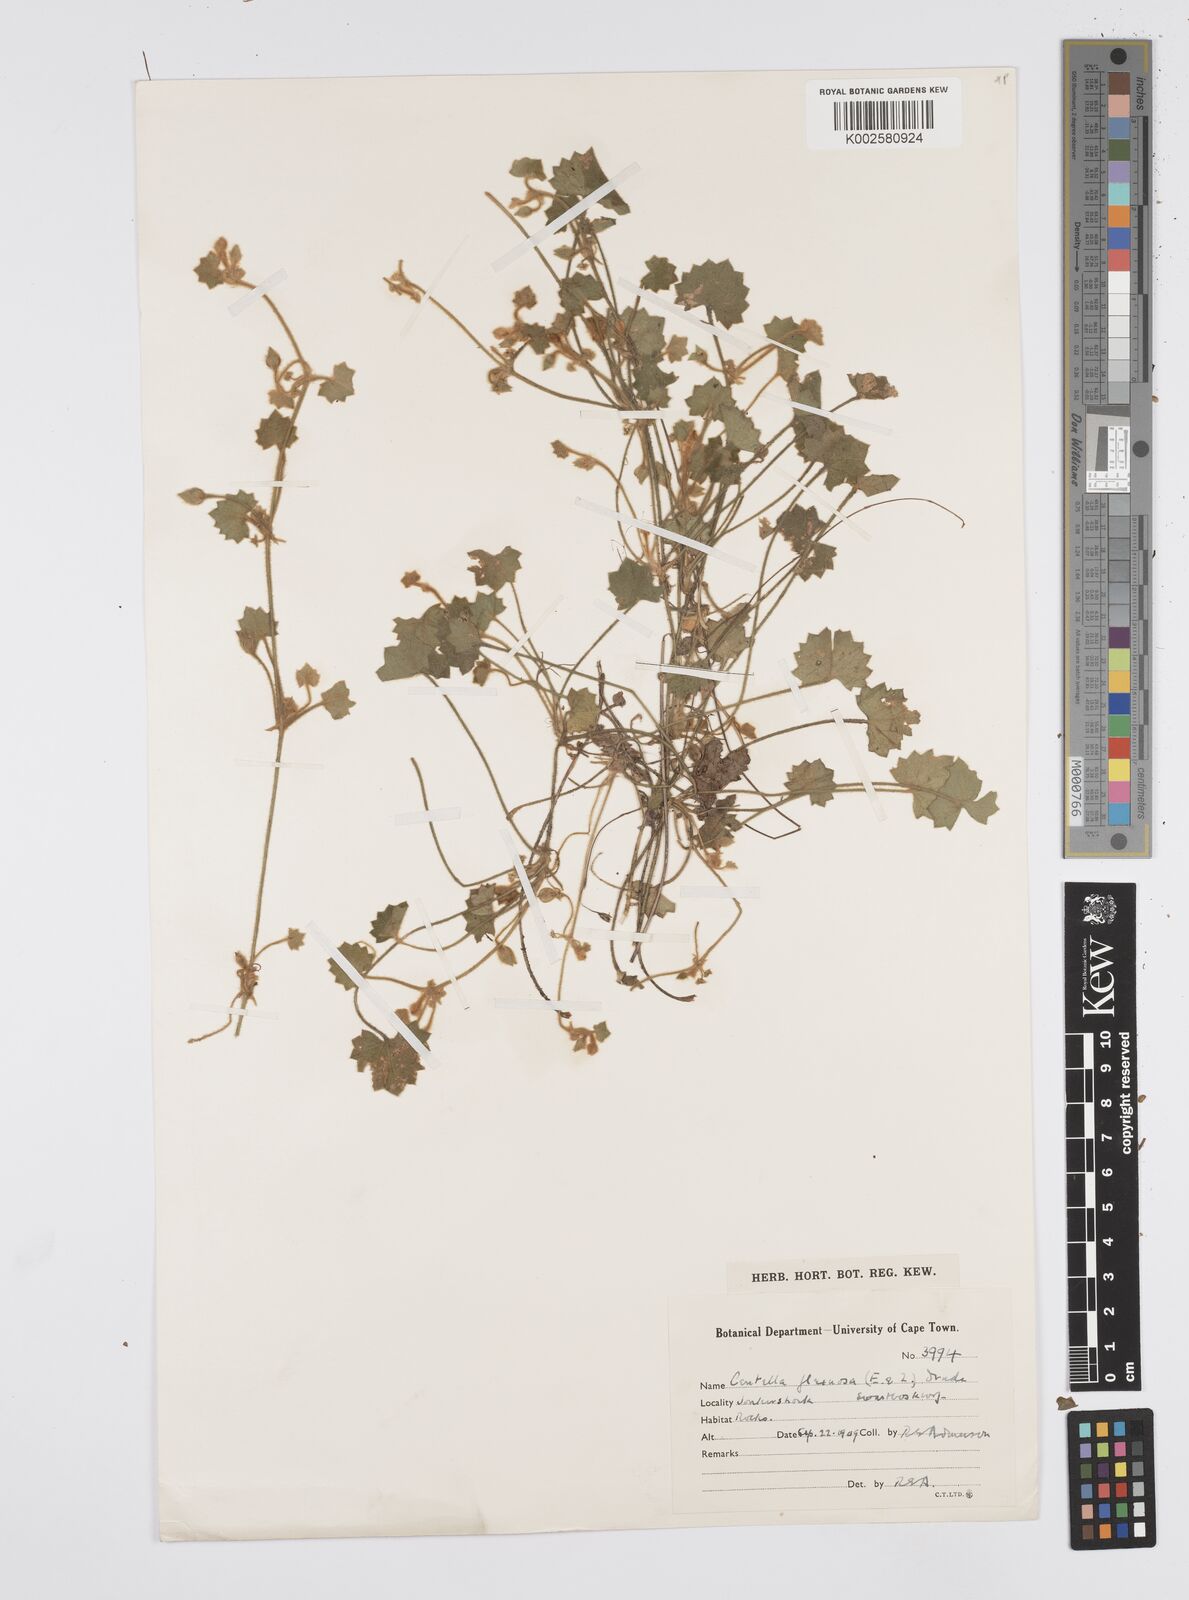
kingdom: Plantae
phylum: Tracheophyta
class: Magnoliopsida
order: Apiales
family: Apiaceae
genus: Centella
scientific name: Centella flexuosa
